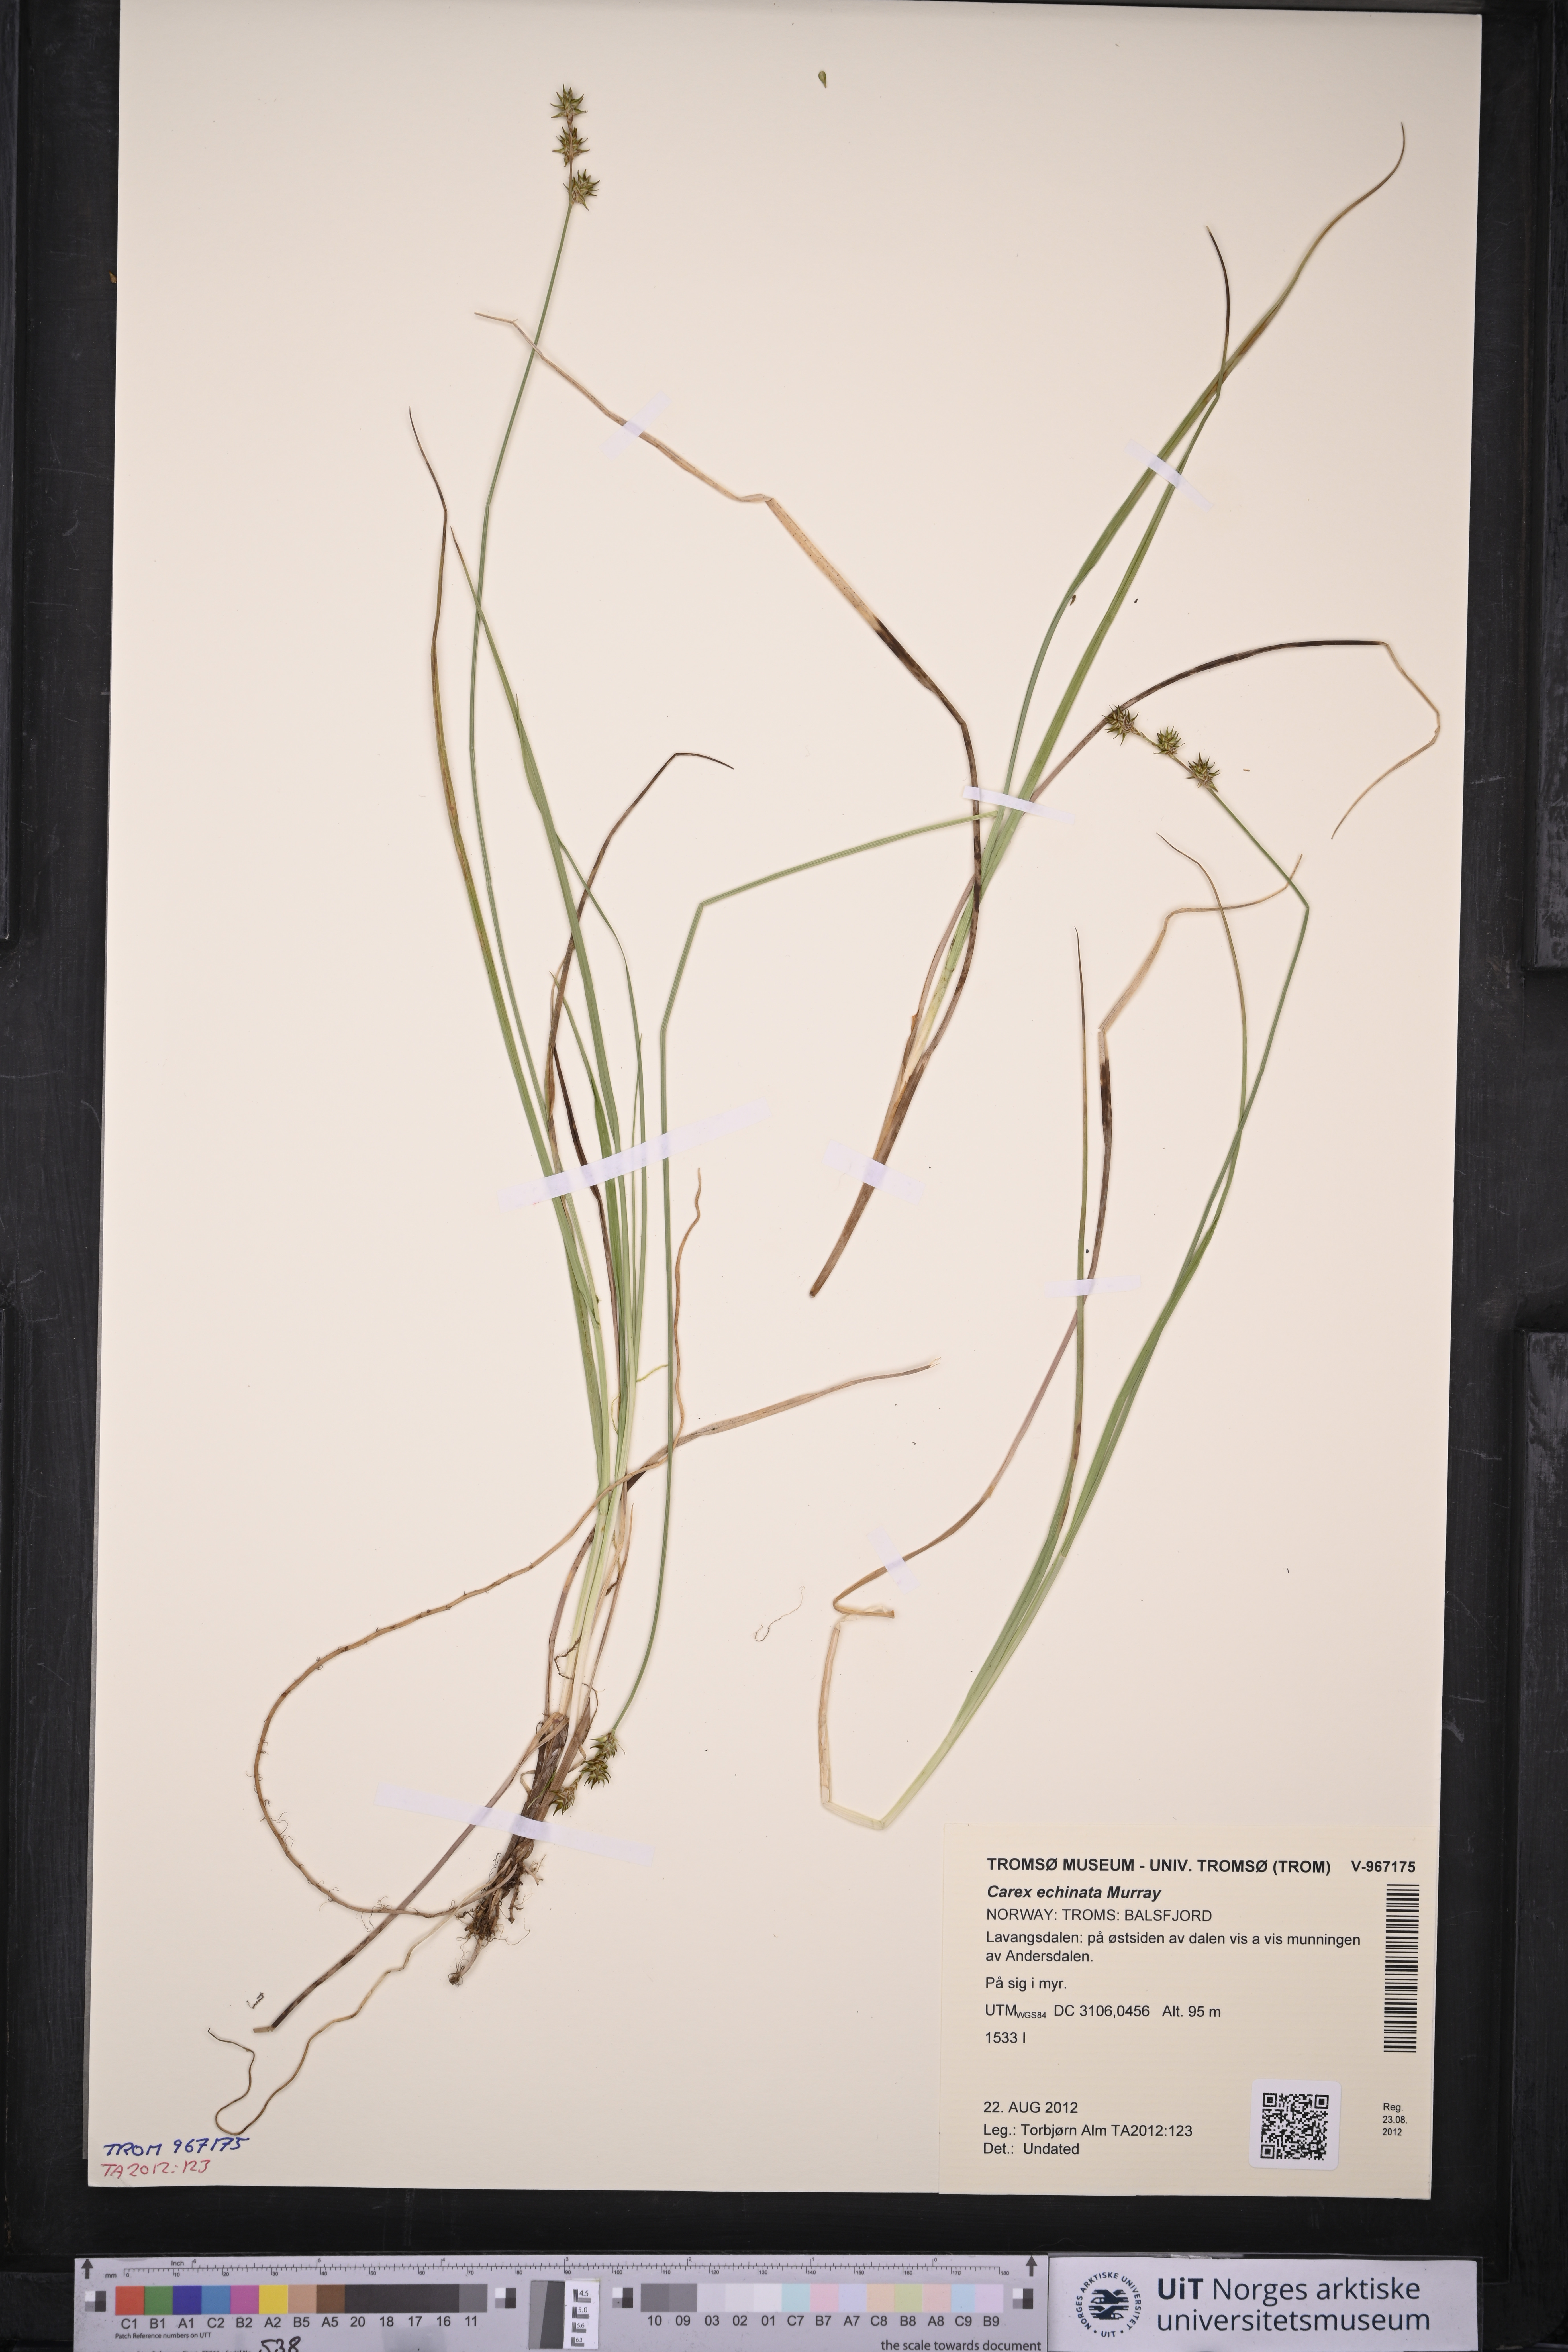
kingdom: Plantae
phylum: Tracheophyta
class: Liliopsida
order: Poales
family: Cyperaceae
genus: Carex
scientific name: Carex echinata
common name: Star sedge
